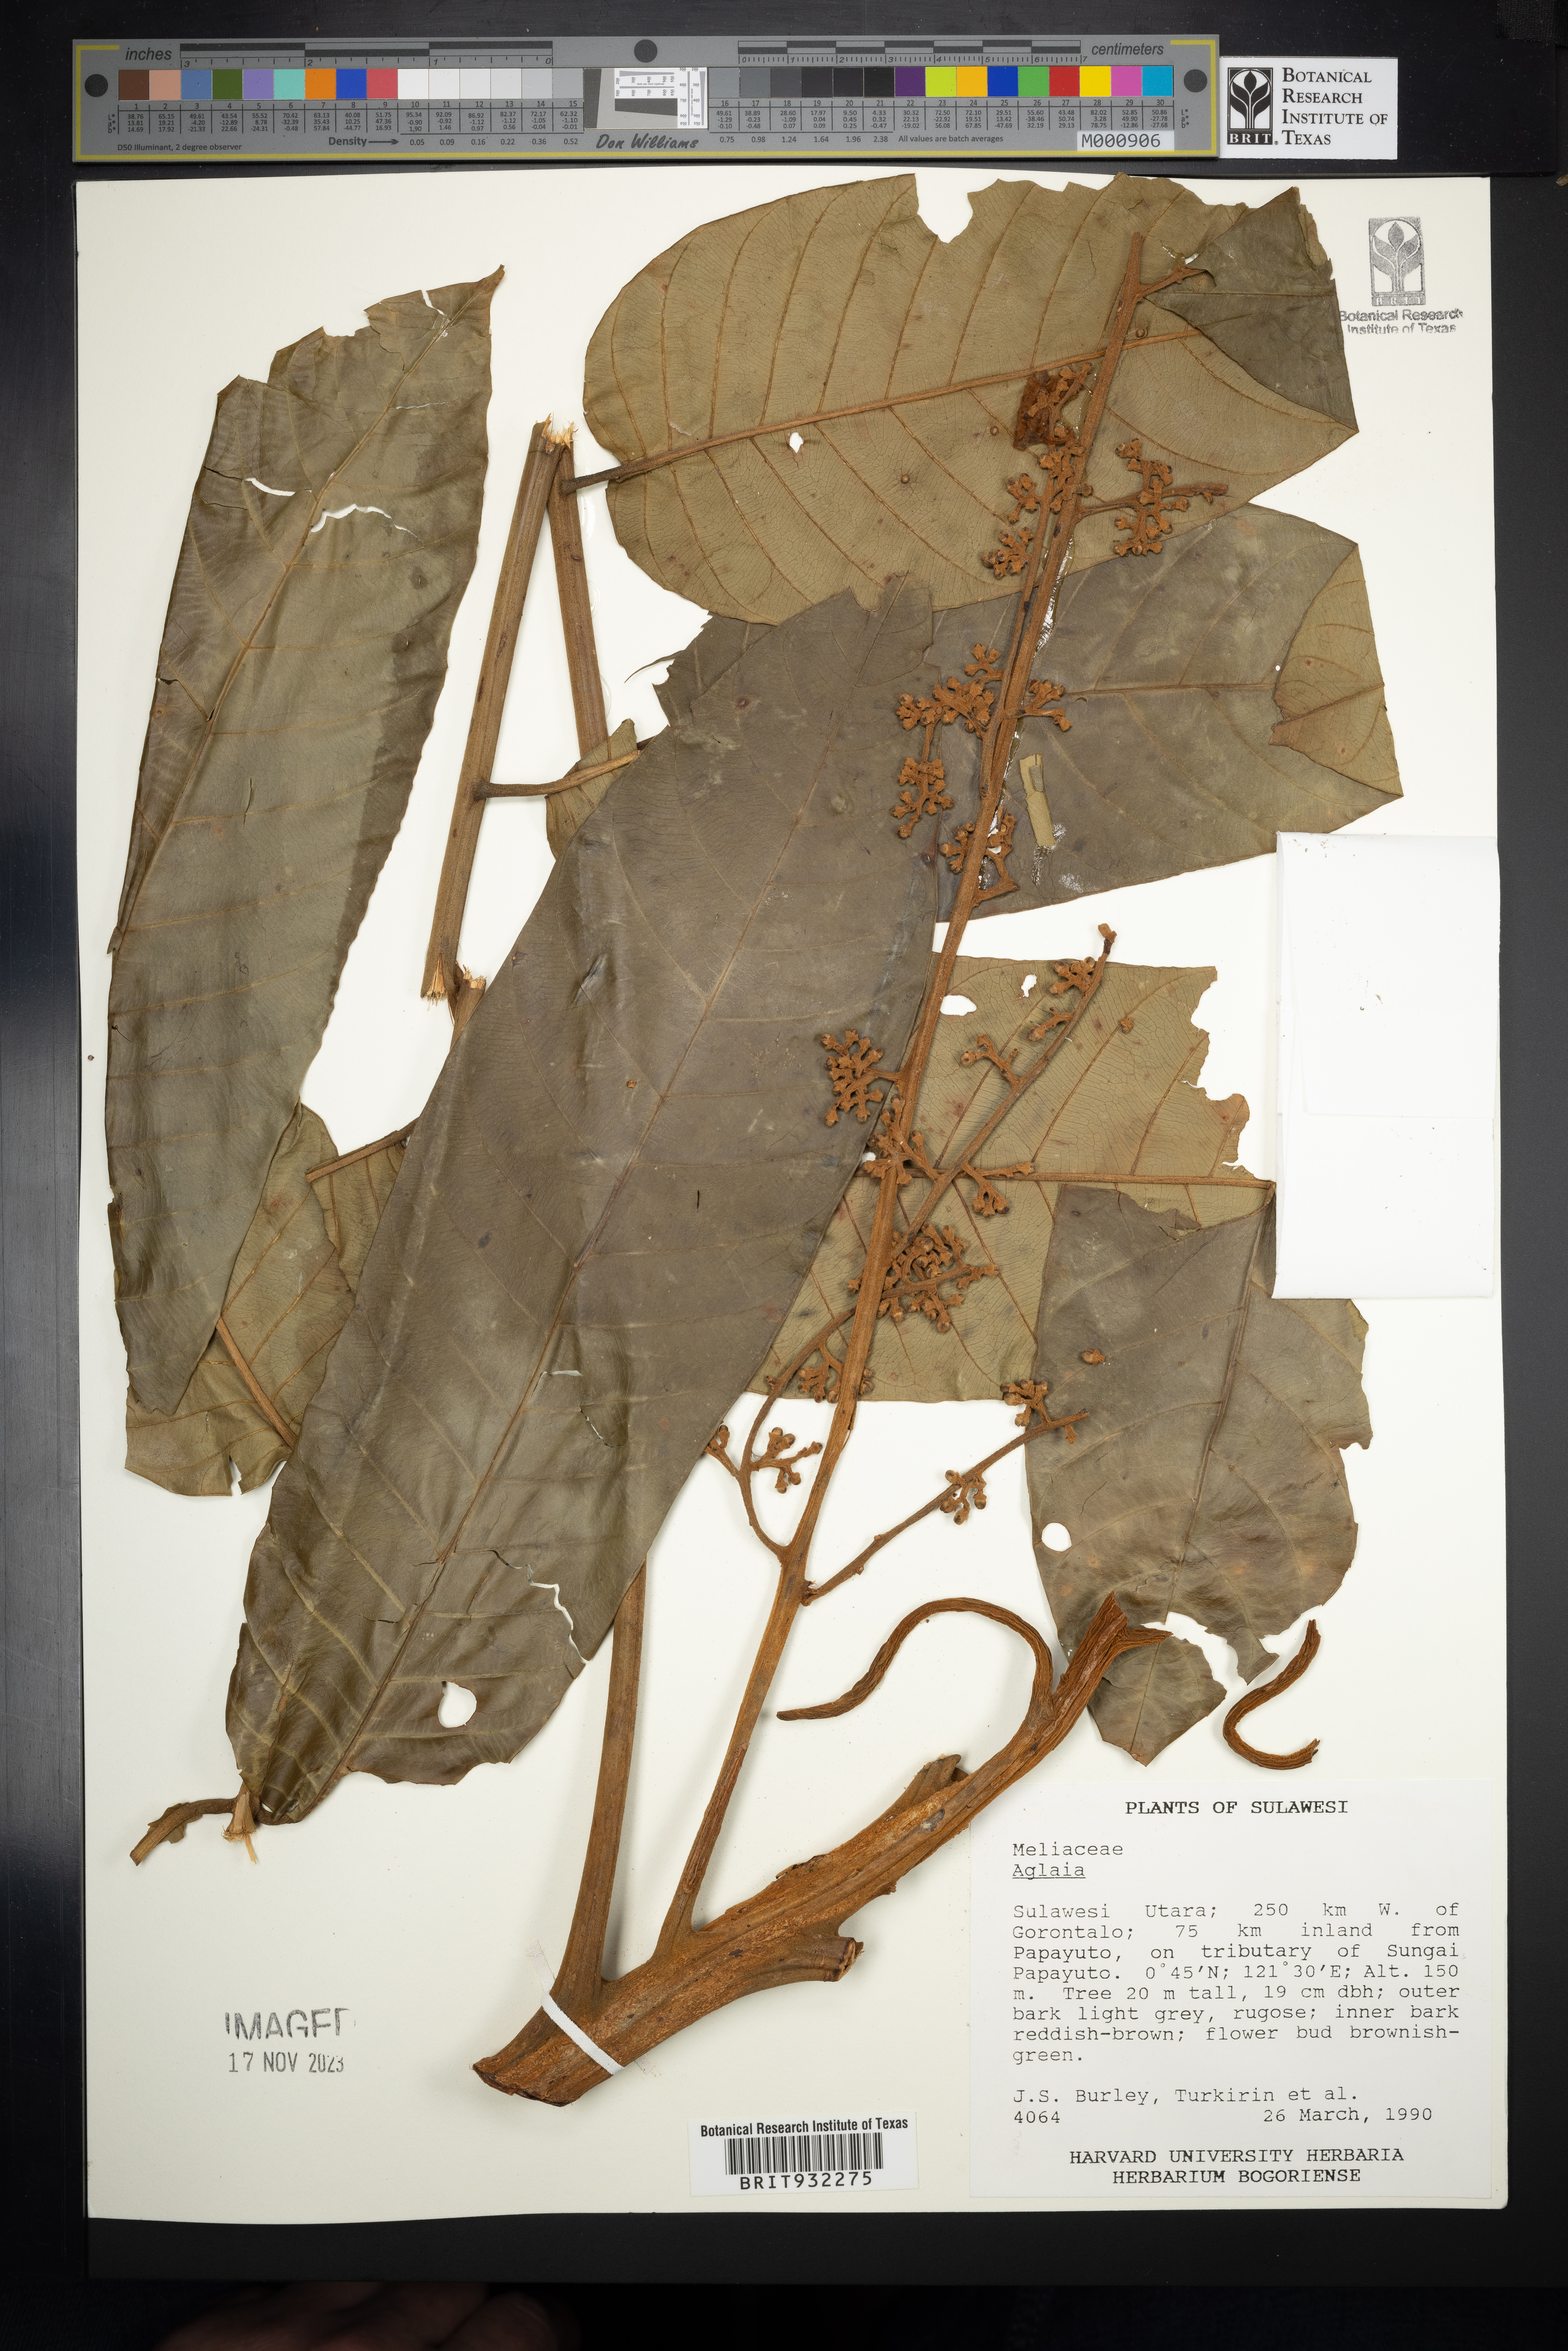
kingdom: Plantae
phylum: Tracheophyta
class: Magnoliopsida
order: Sapindales
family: Meliaceae
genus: Aglaia
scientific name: Aglaia
